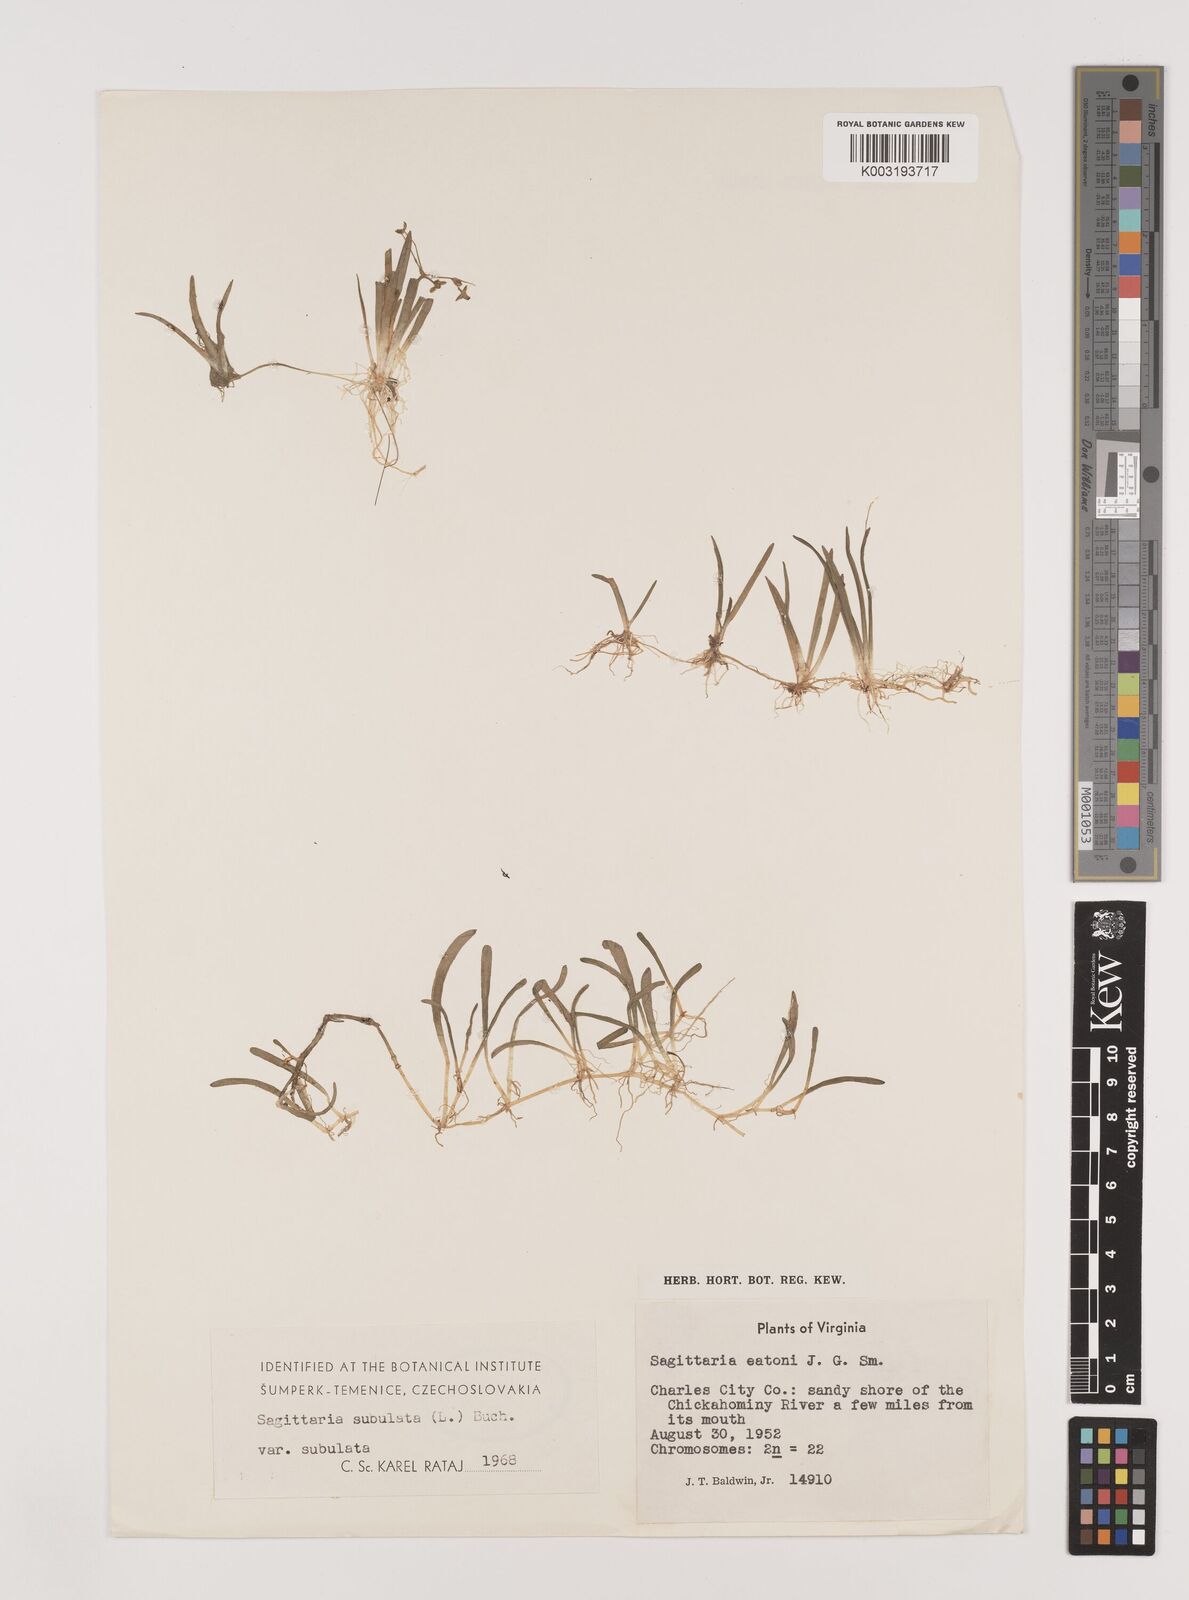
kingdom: Plantae
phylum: Tracheophyta
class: Liliopsida
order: Alismatales
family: Alismataceae
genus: Sagittaria
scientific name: Sagittaria subulata
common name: Narrow-leaved arrowhead
